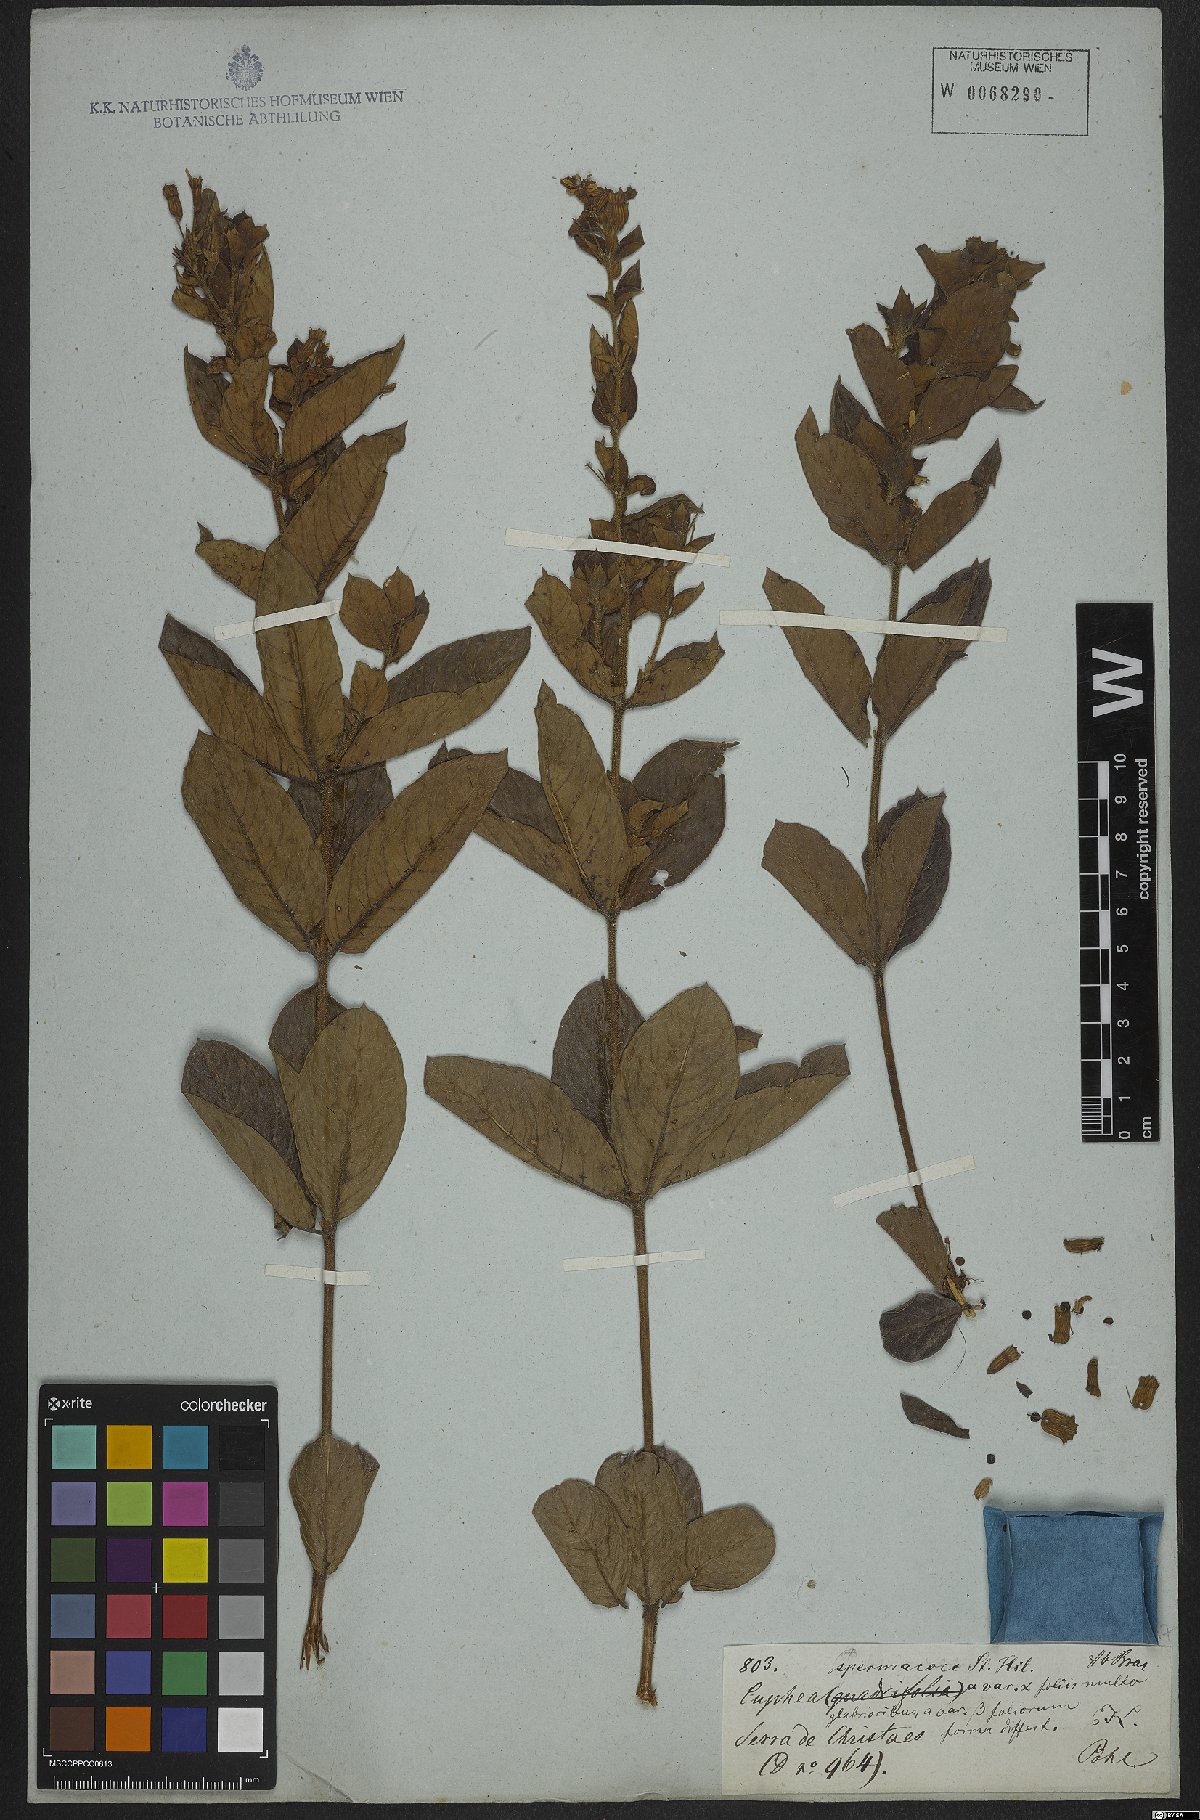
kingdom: Plantae
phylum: Tracheophyta
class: Magnoliopsida
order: Myrtales
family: Lythraceae
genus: Cuphea
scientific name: Cuphea spermacoce
